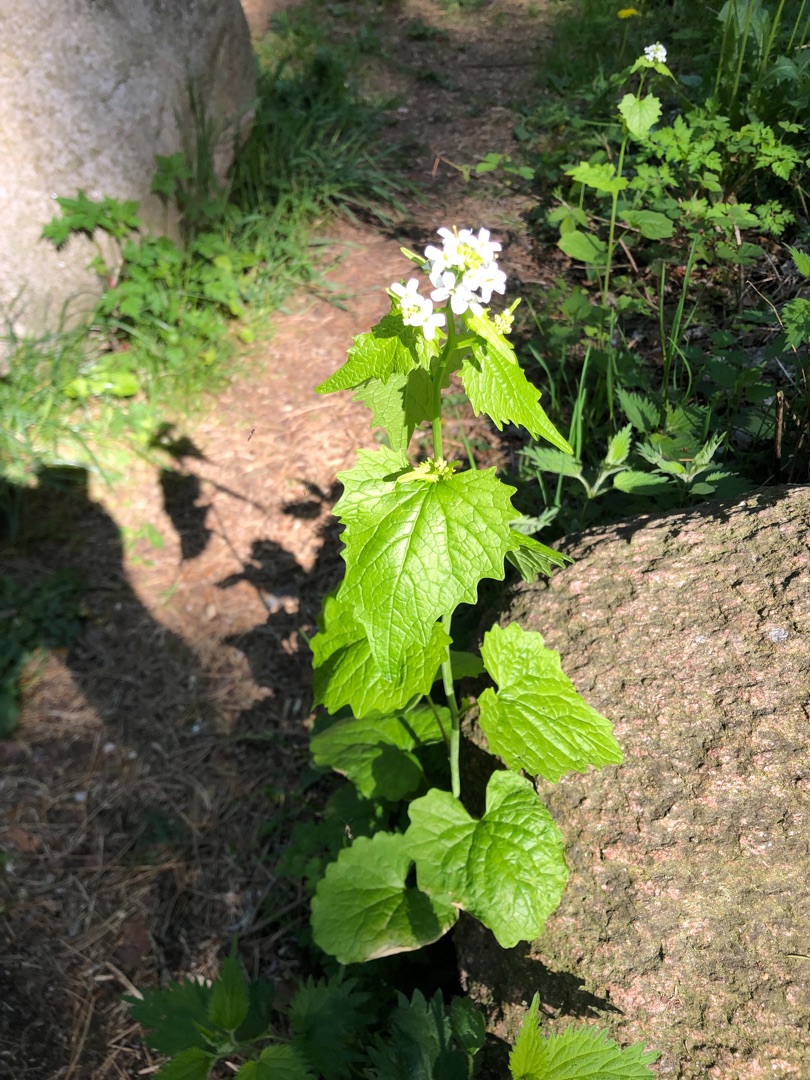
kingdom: Plantae
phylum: Tracheophyta
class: Magnoliopsida
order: Brassicales
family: Brassicaceae
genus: Alliaria
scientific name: Alliaria petiolata
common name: Løgkarse
